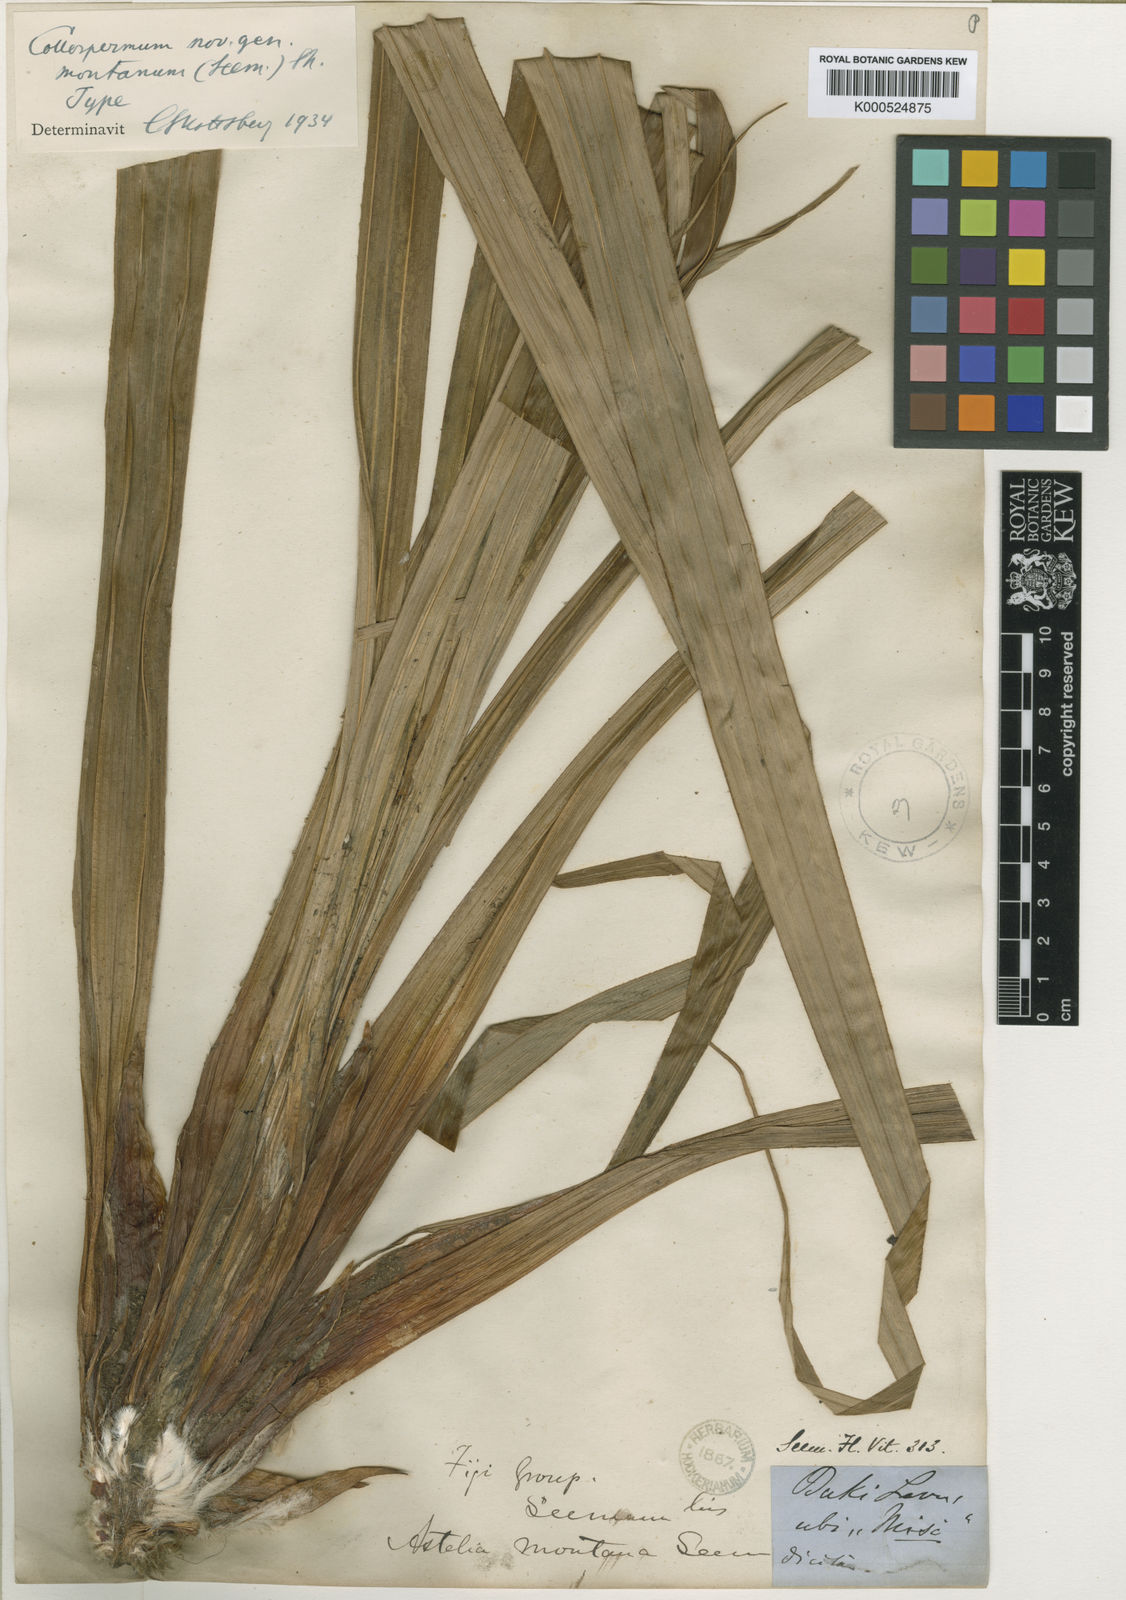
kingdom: Plantae
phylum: Tracheophyta
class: Liliopsida
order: Asparagales
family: Asteliaceae
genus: Astelia
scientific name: Astelia montana
